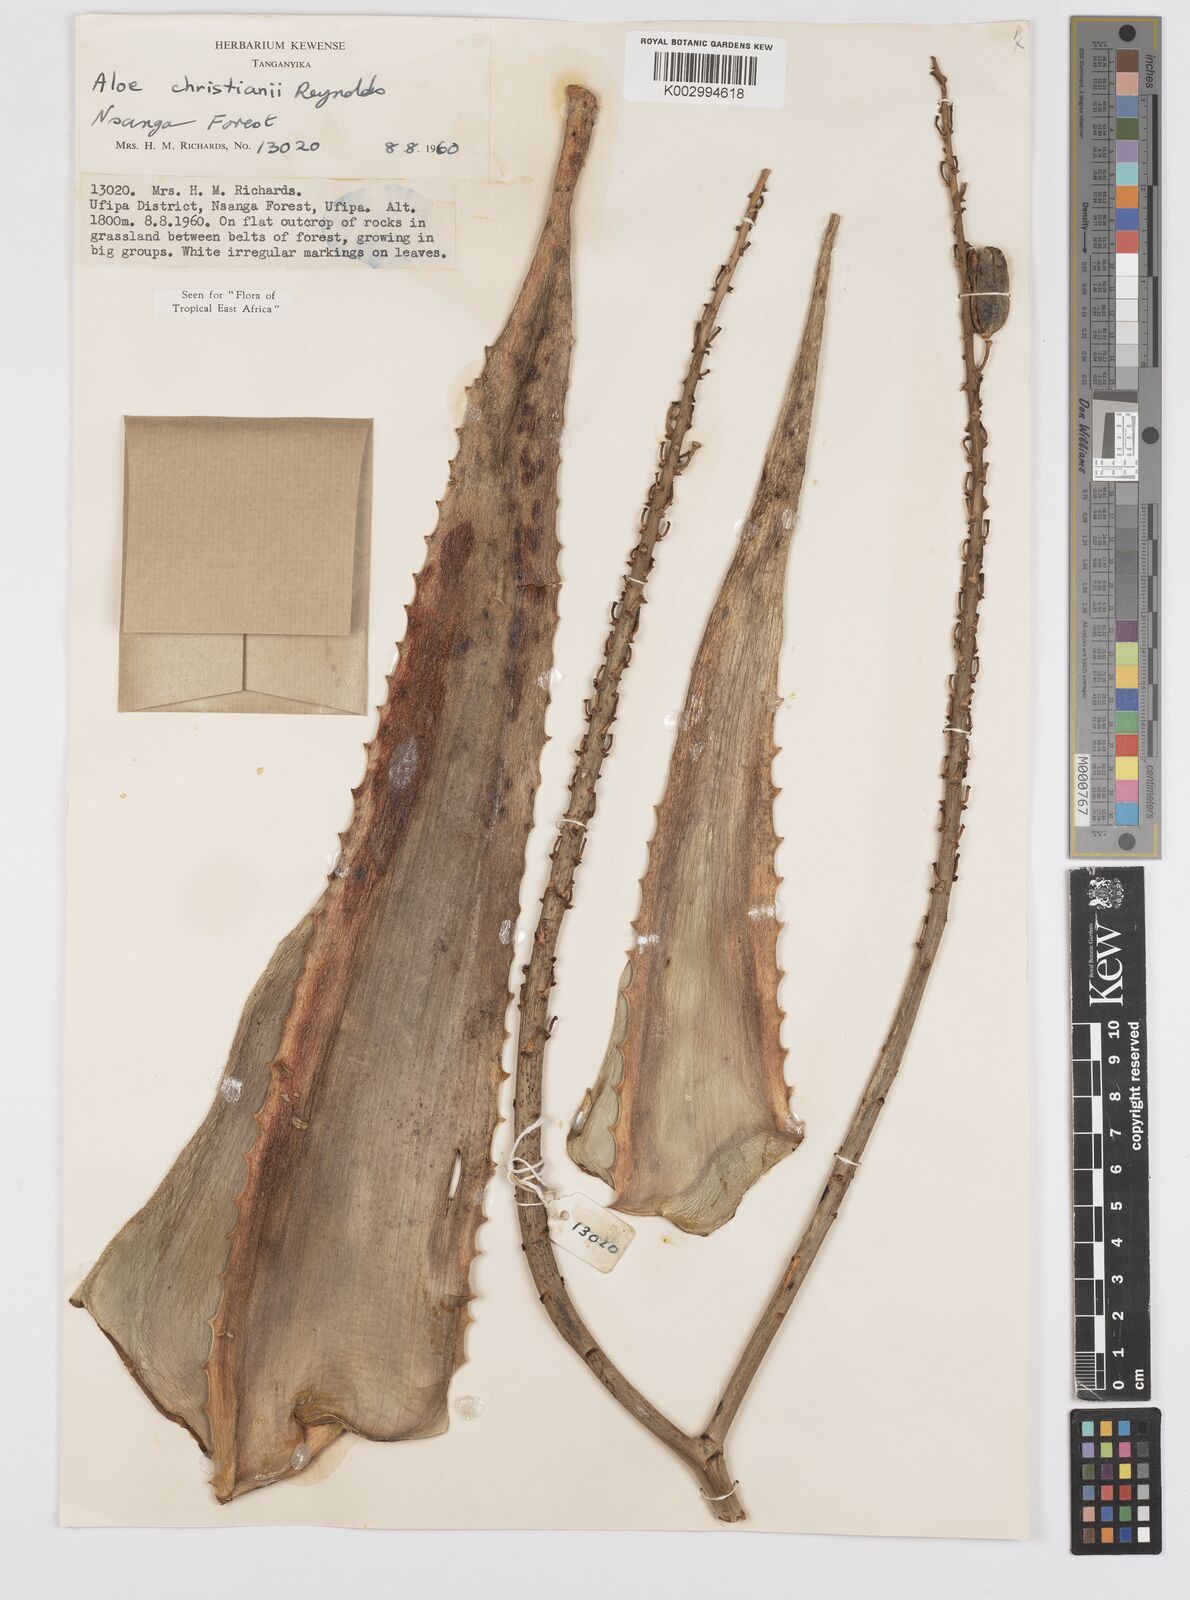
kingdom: Plantae
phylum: Tracheophyta
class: Liliopsida
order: Asparagales
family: Asphodelaceae
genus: Aloe
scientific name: Aloe christianii
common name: Basil christian's aloe
